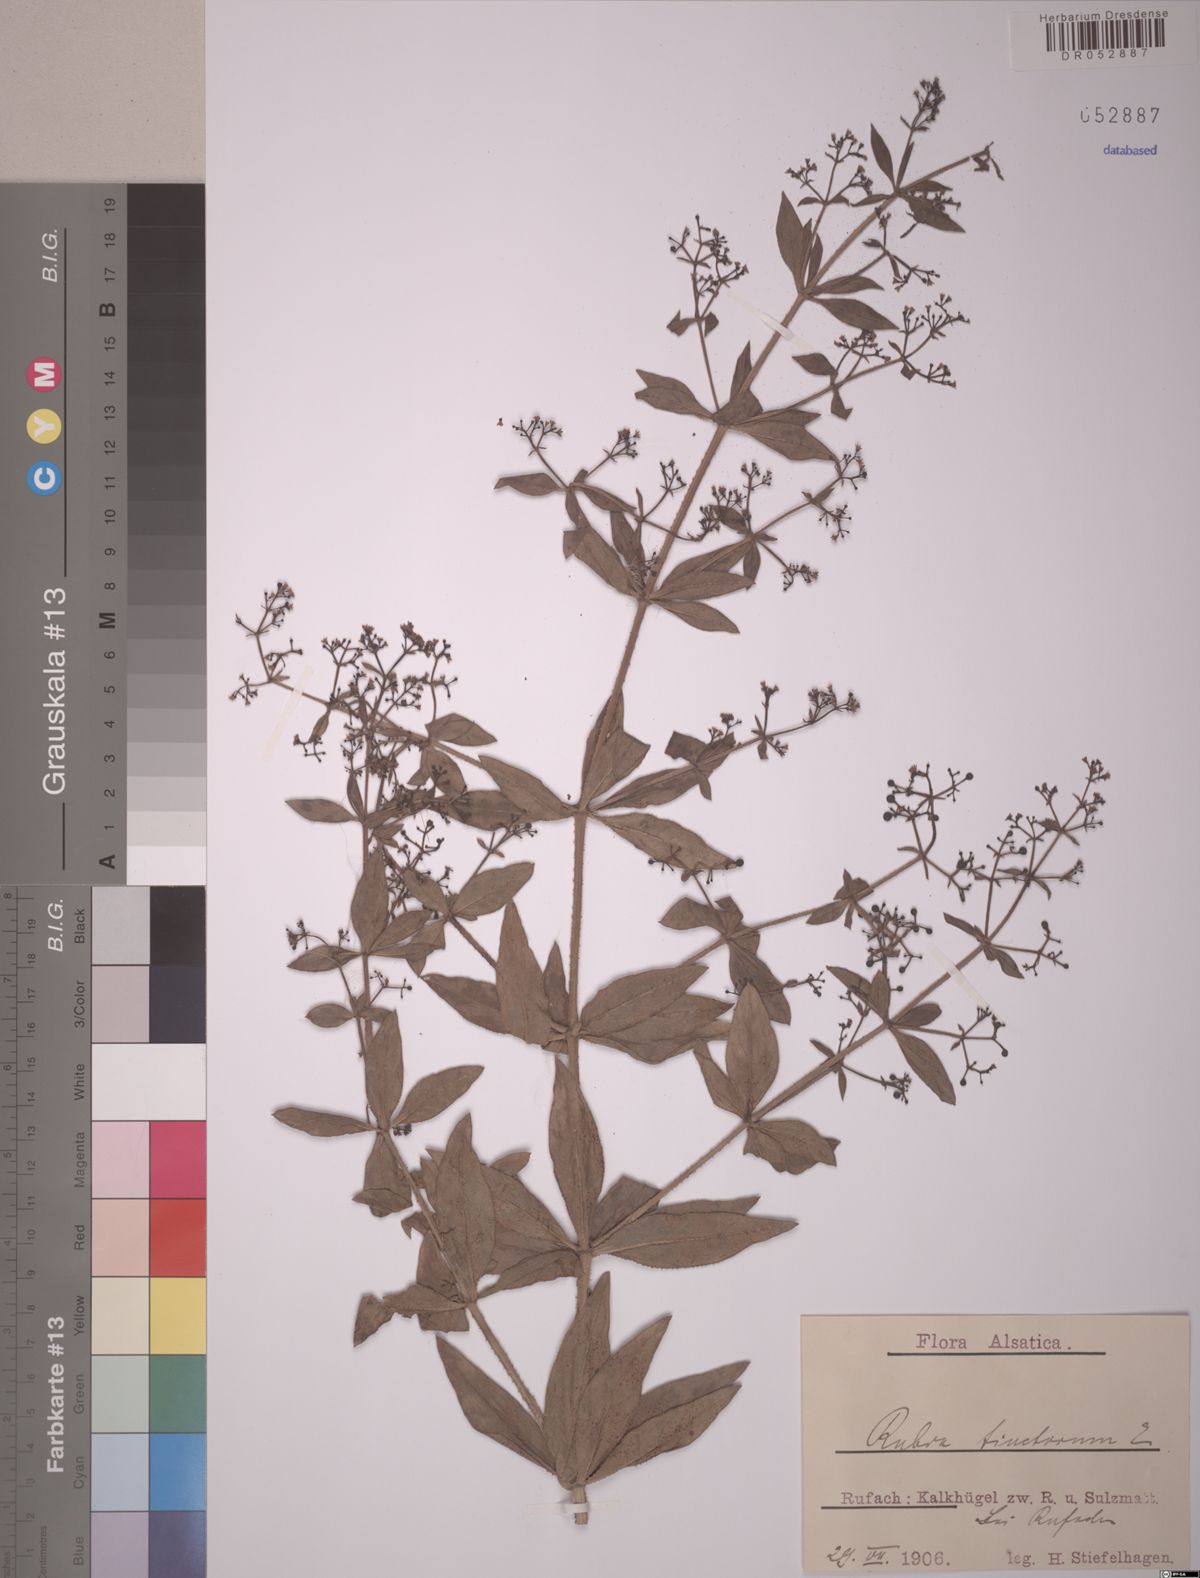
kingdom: Plantae
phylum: Tracheophyta
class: Magnoliopsida
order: Gentianales
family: Rubiaceae
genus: Rubia
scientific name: Rubia tinctorum
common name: Dyer's madder
